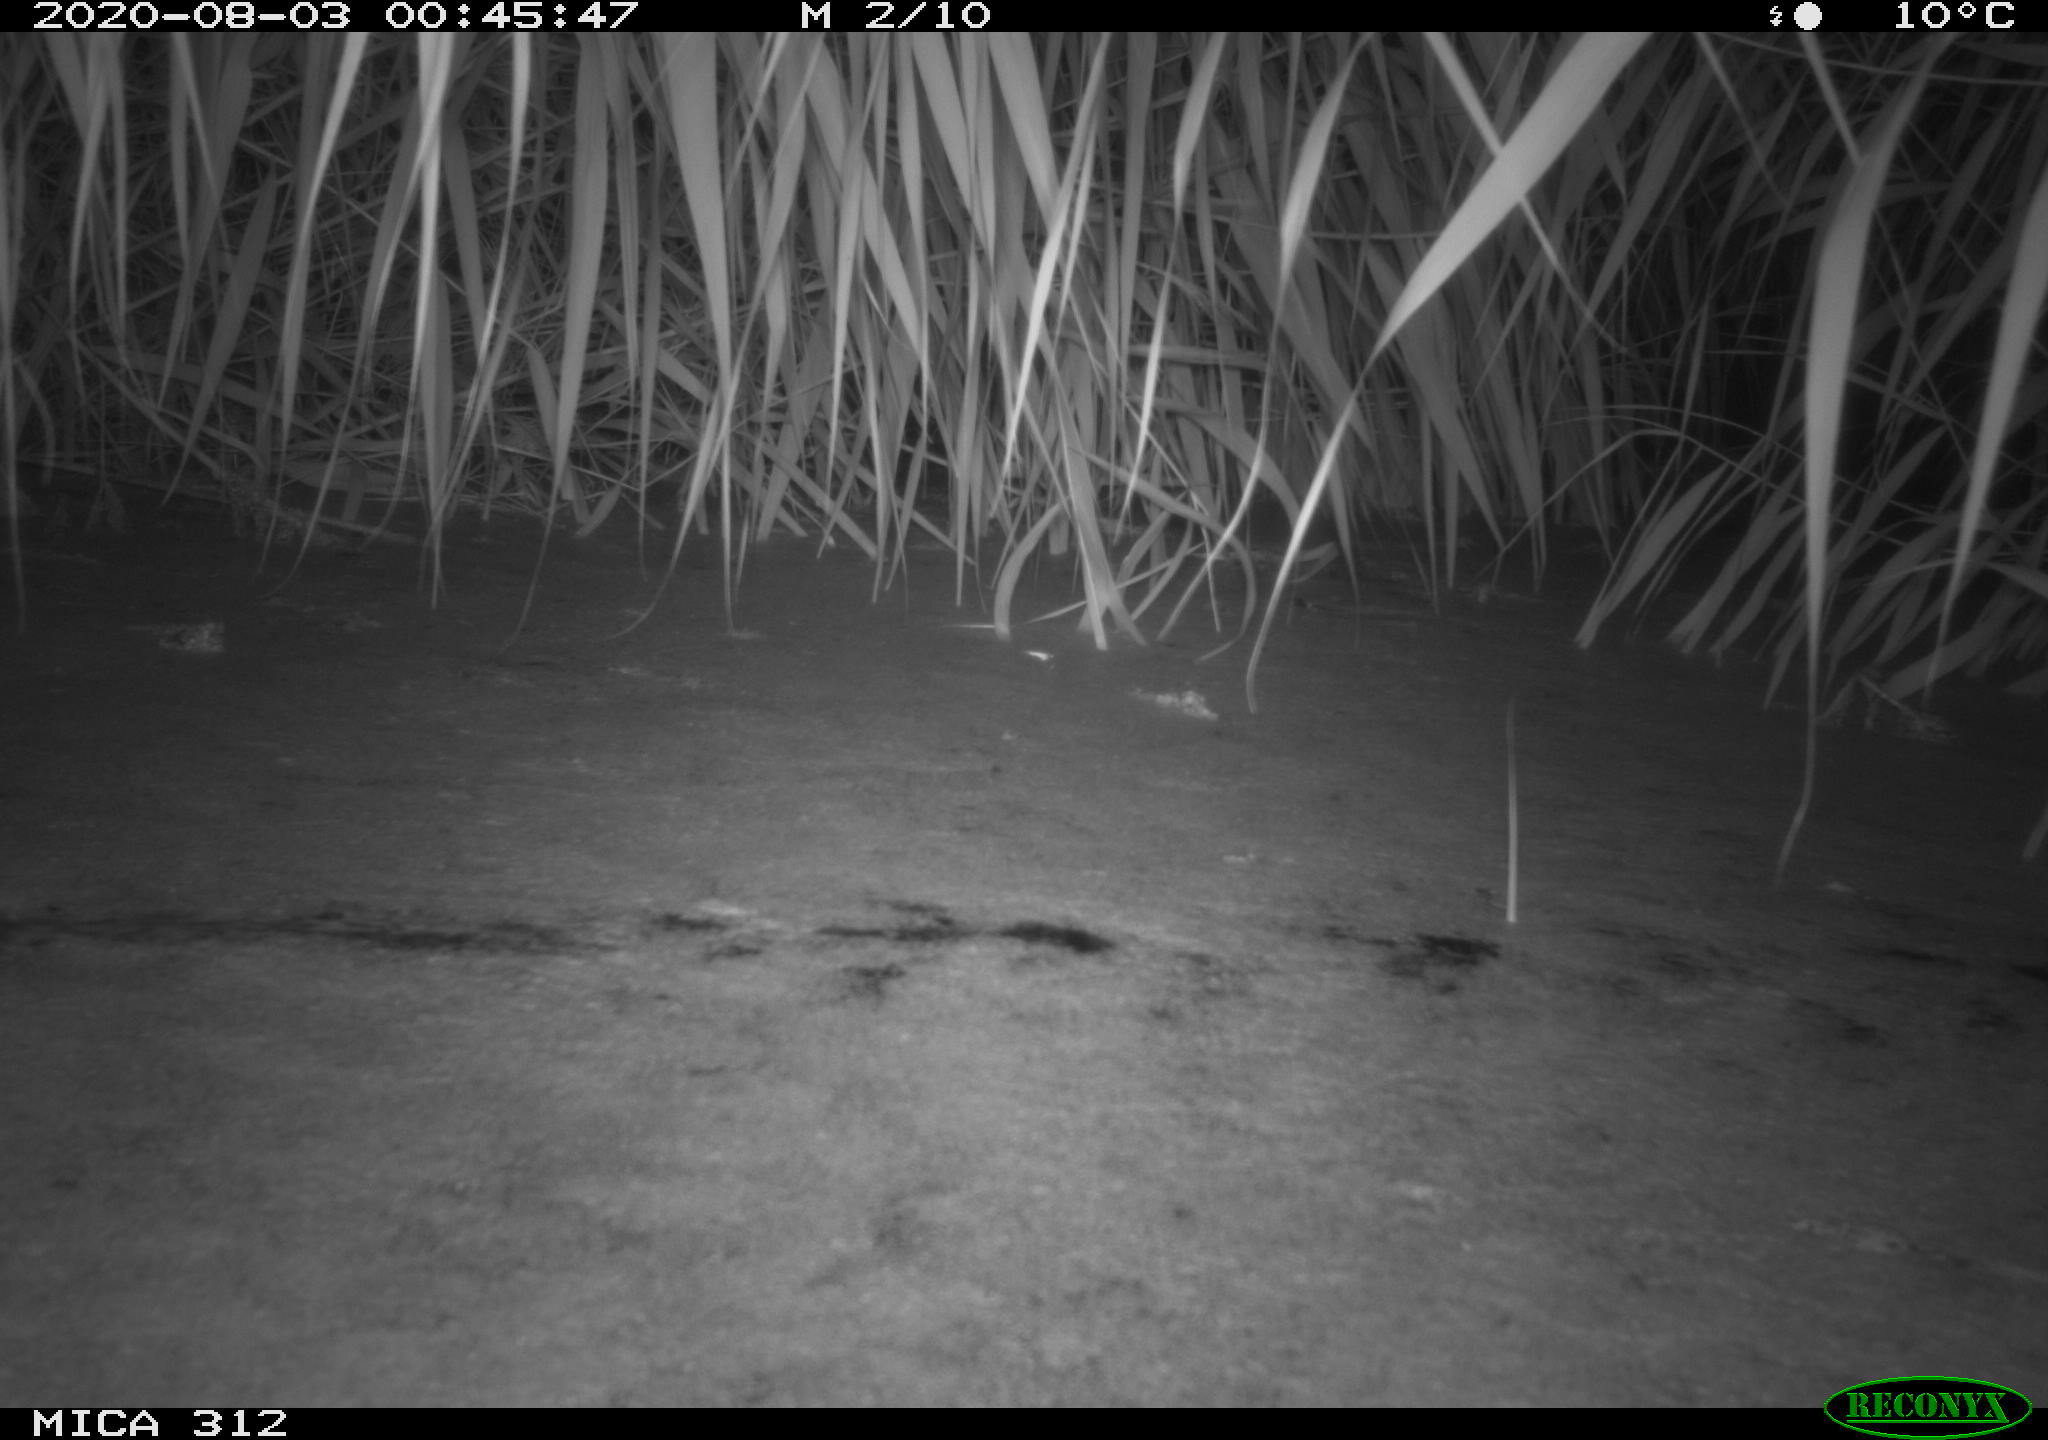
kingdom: Animalia
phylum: Chordata
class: Mammalia
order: Rodentia
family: Muridae
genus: Rattus
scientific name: Rattus norvegicus
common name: Brown rat
